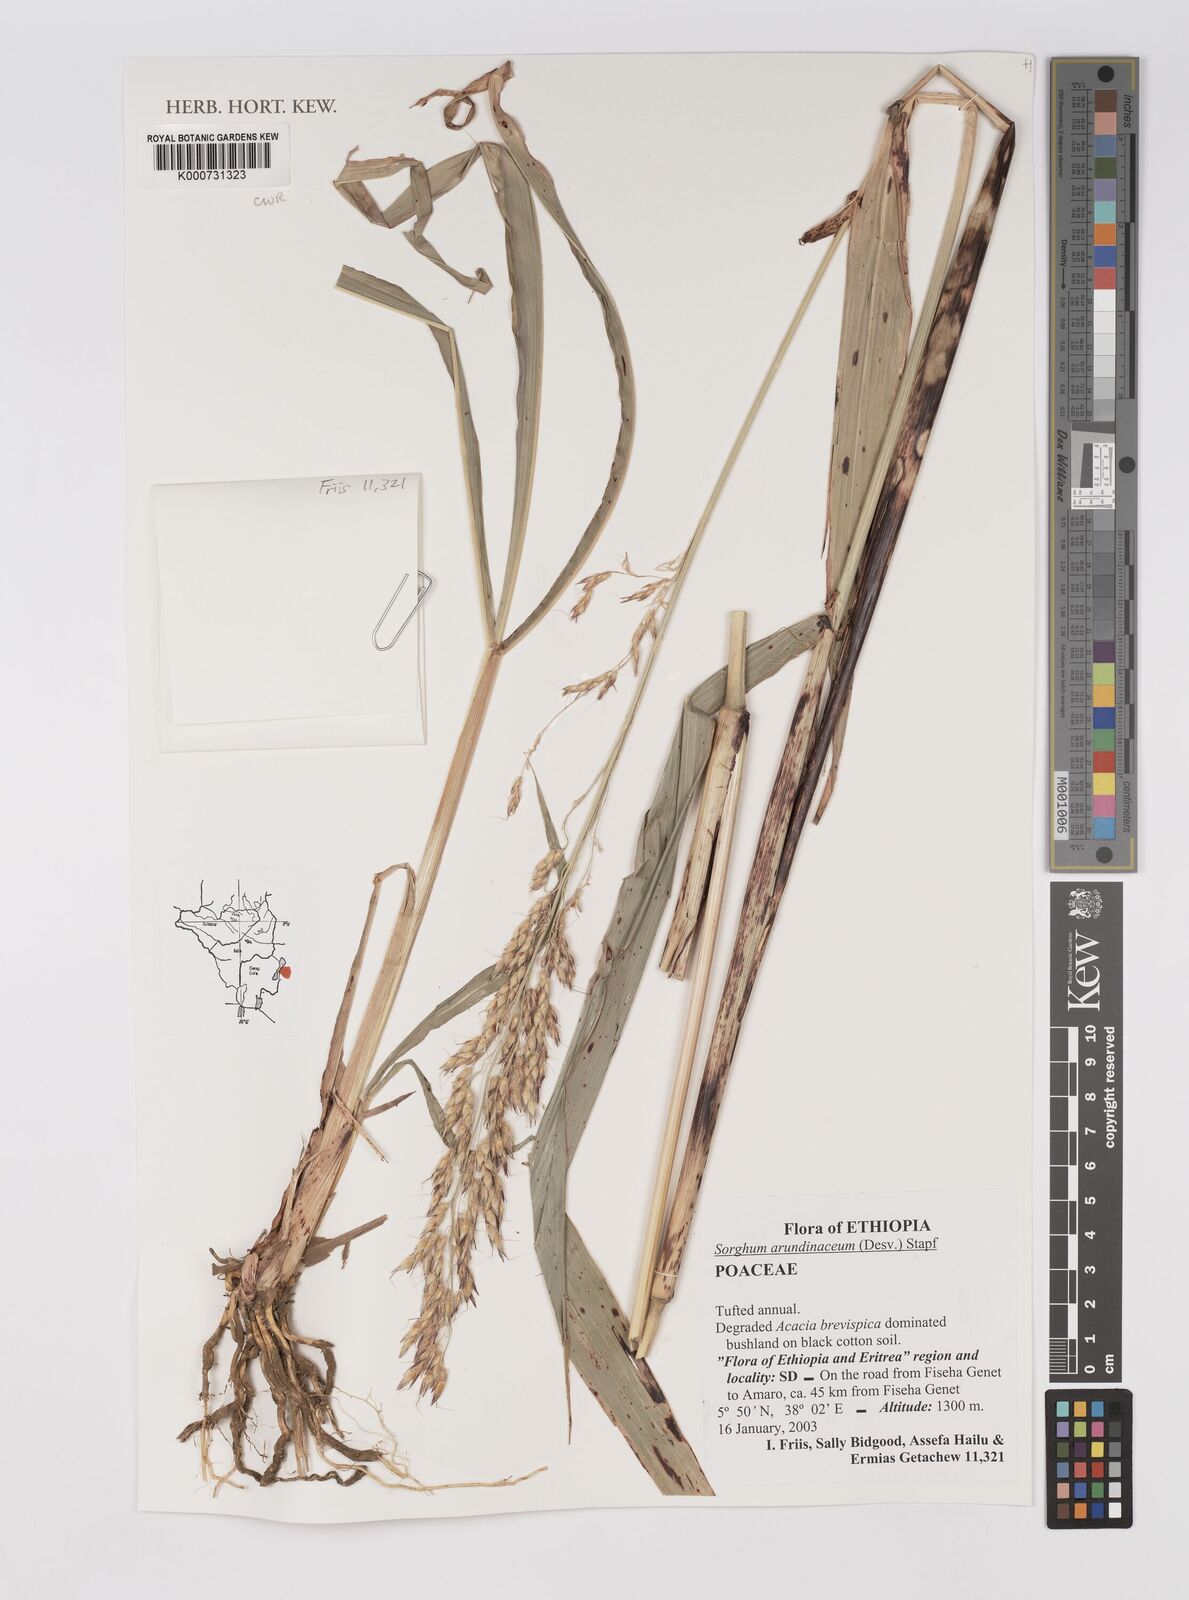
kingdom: Plantae
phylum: Tracheophyta
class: Liliopsida
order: Poales
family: Poaceae
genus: Sorghum
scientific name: Sorghum arundinaceum
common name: Sorghum
